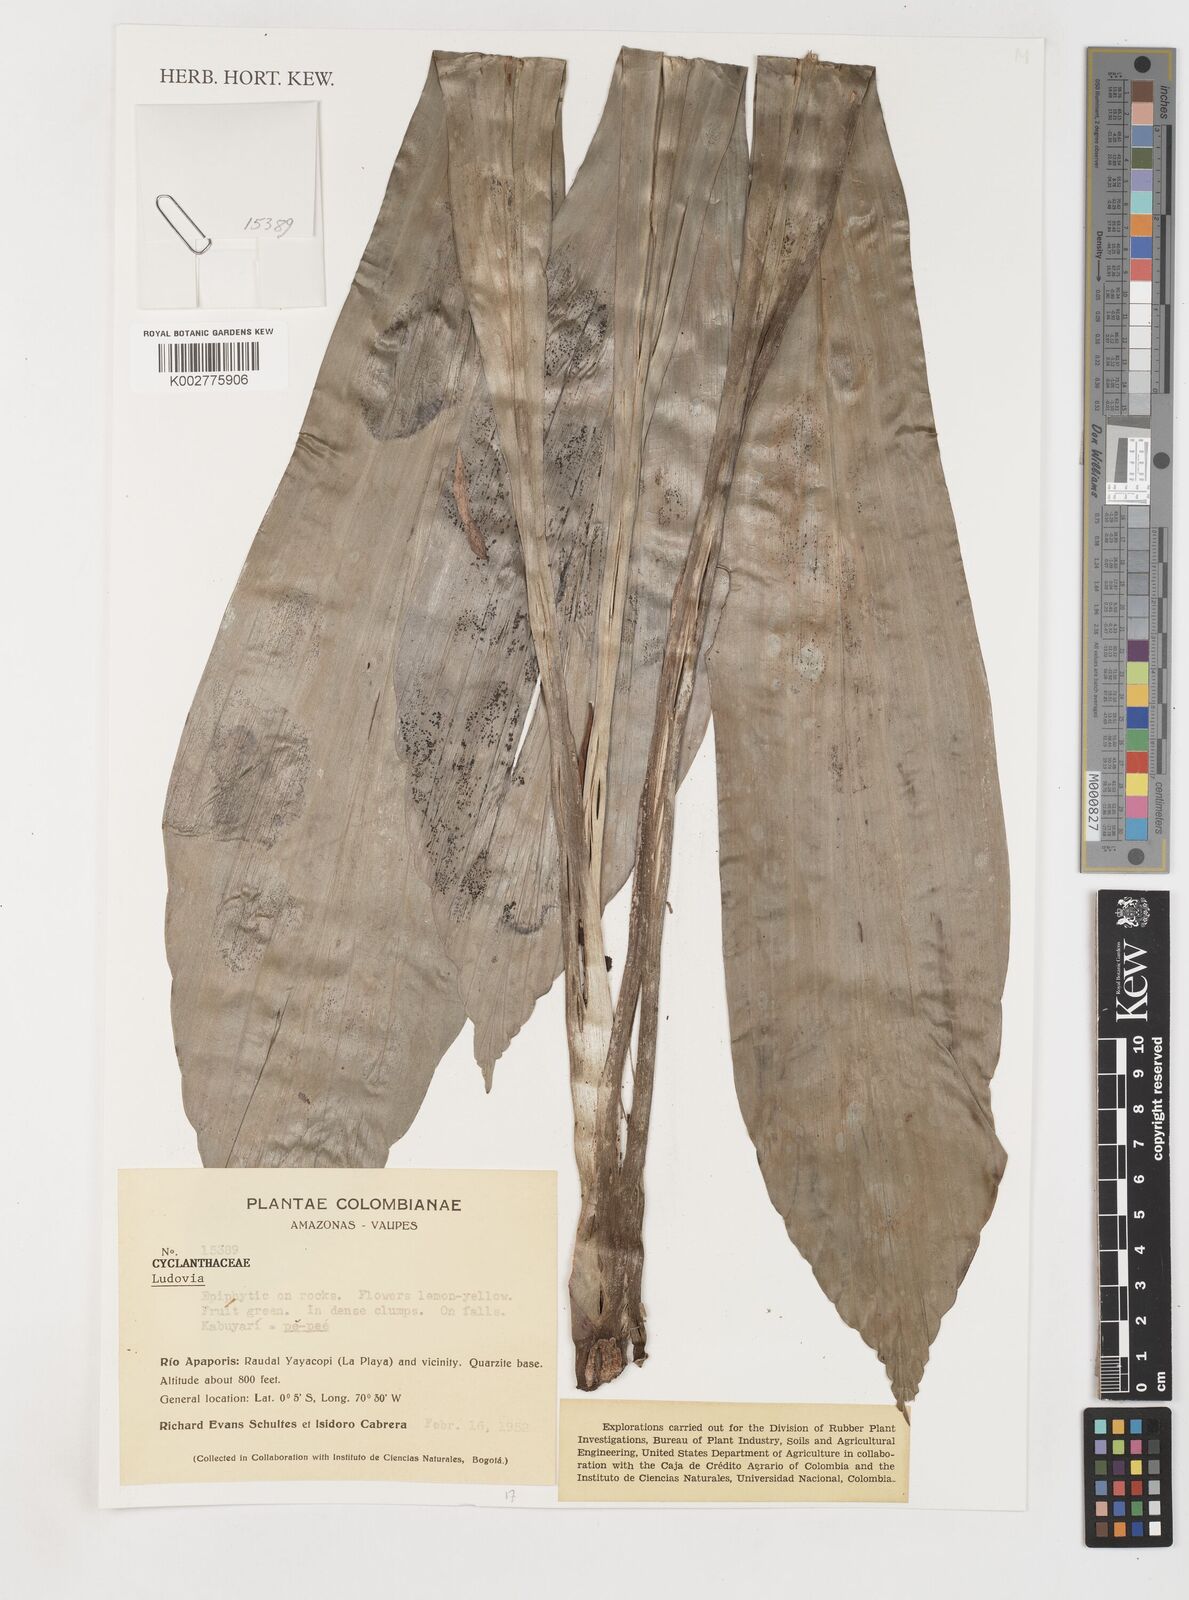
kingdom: Plantae
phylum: Tracheophyta
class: Liliopsida
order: Pandanales
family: Cyclanthaceae
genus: Ludovia
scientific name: Ludovia
